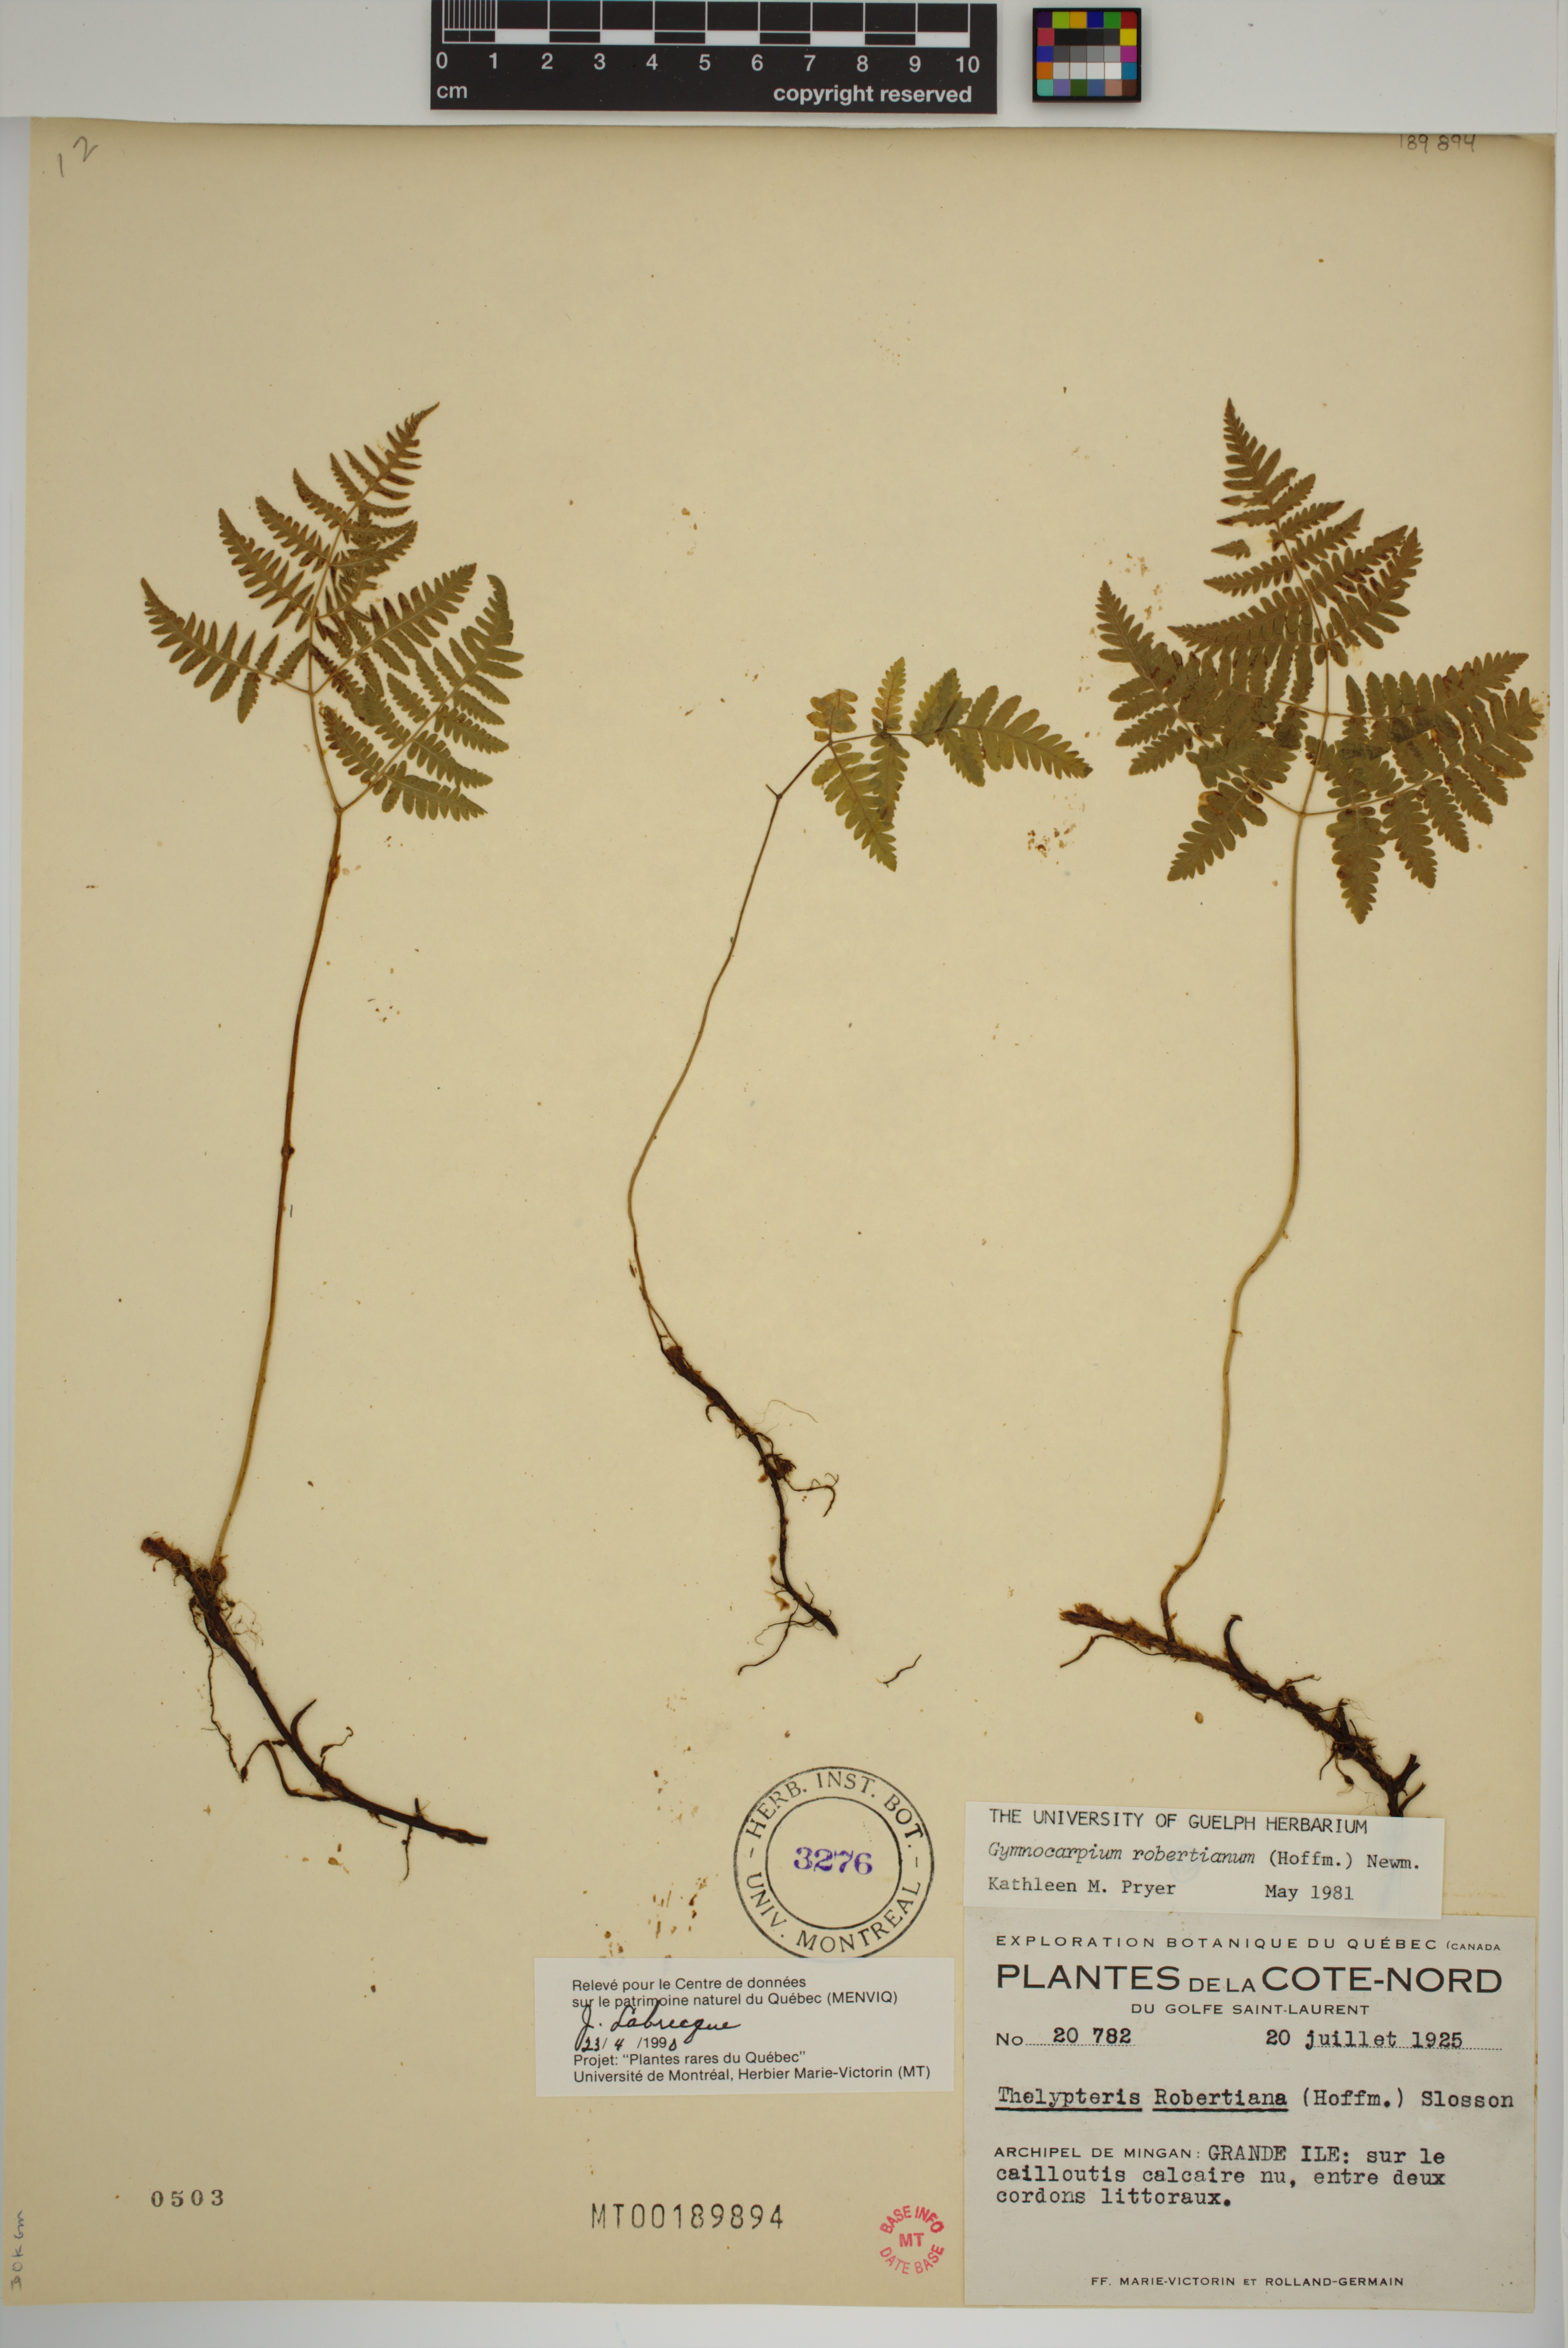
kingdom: Plantae
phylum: Tracheophyta
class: Polypodiopsida
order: Polypodiales
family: Cystopteridaceae
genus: Gymnocarpium
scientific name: Gymnocarpium robertianum
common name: Limestone fern
